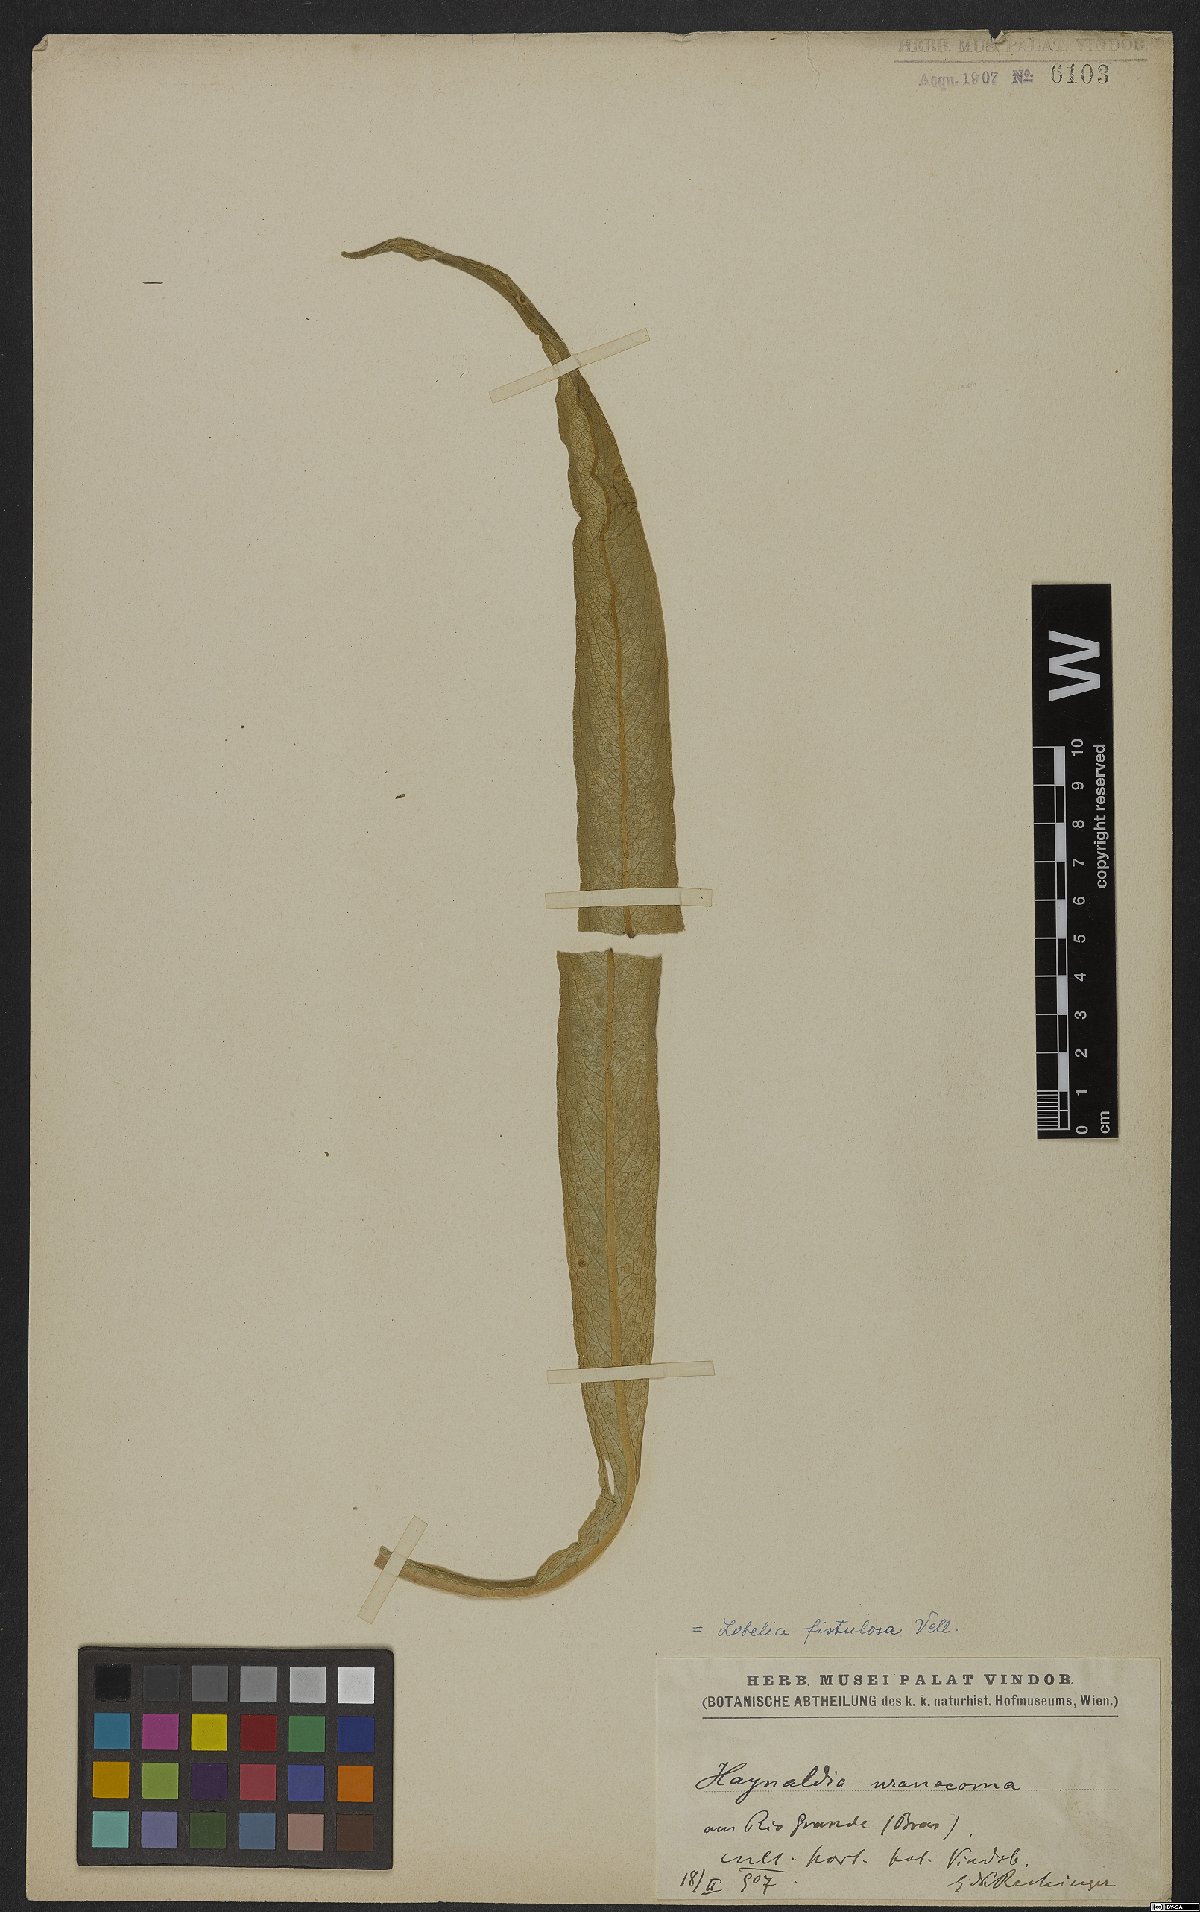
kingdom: Plantae
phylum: Tracheophyta
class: Magnoliopsida
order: Asterales
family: Campanulaceae
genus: Lobelia
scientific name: Lobelia fistulosa
